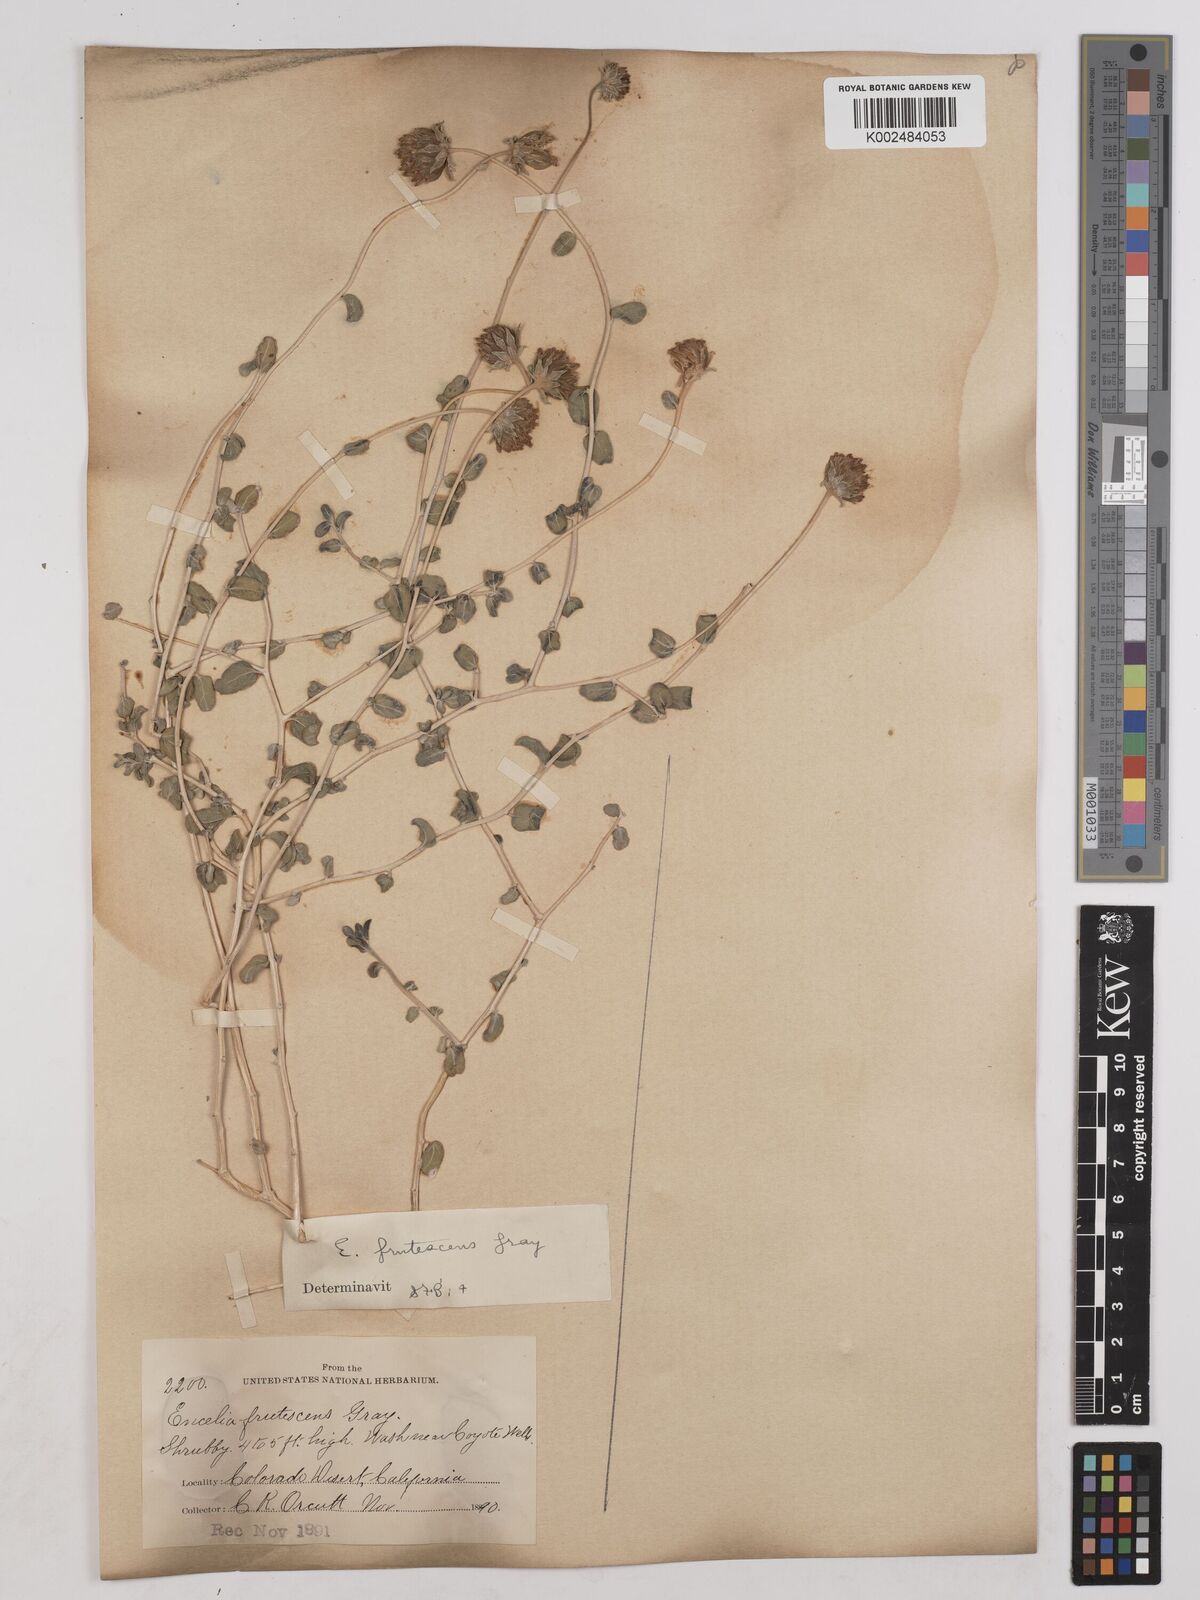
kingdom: Plantae
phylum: Tracheophyta
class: Magnoliopsida
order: Asterales
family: Asteraceae
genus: Encelia
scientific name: Encelia frutescens
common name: Bush encelia
